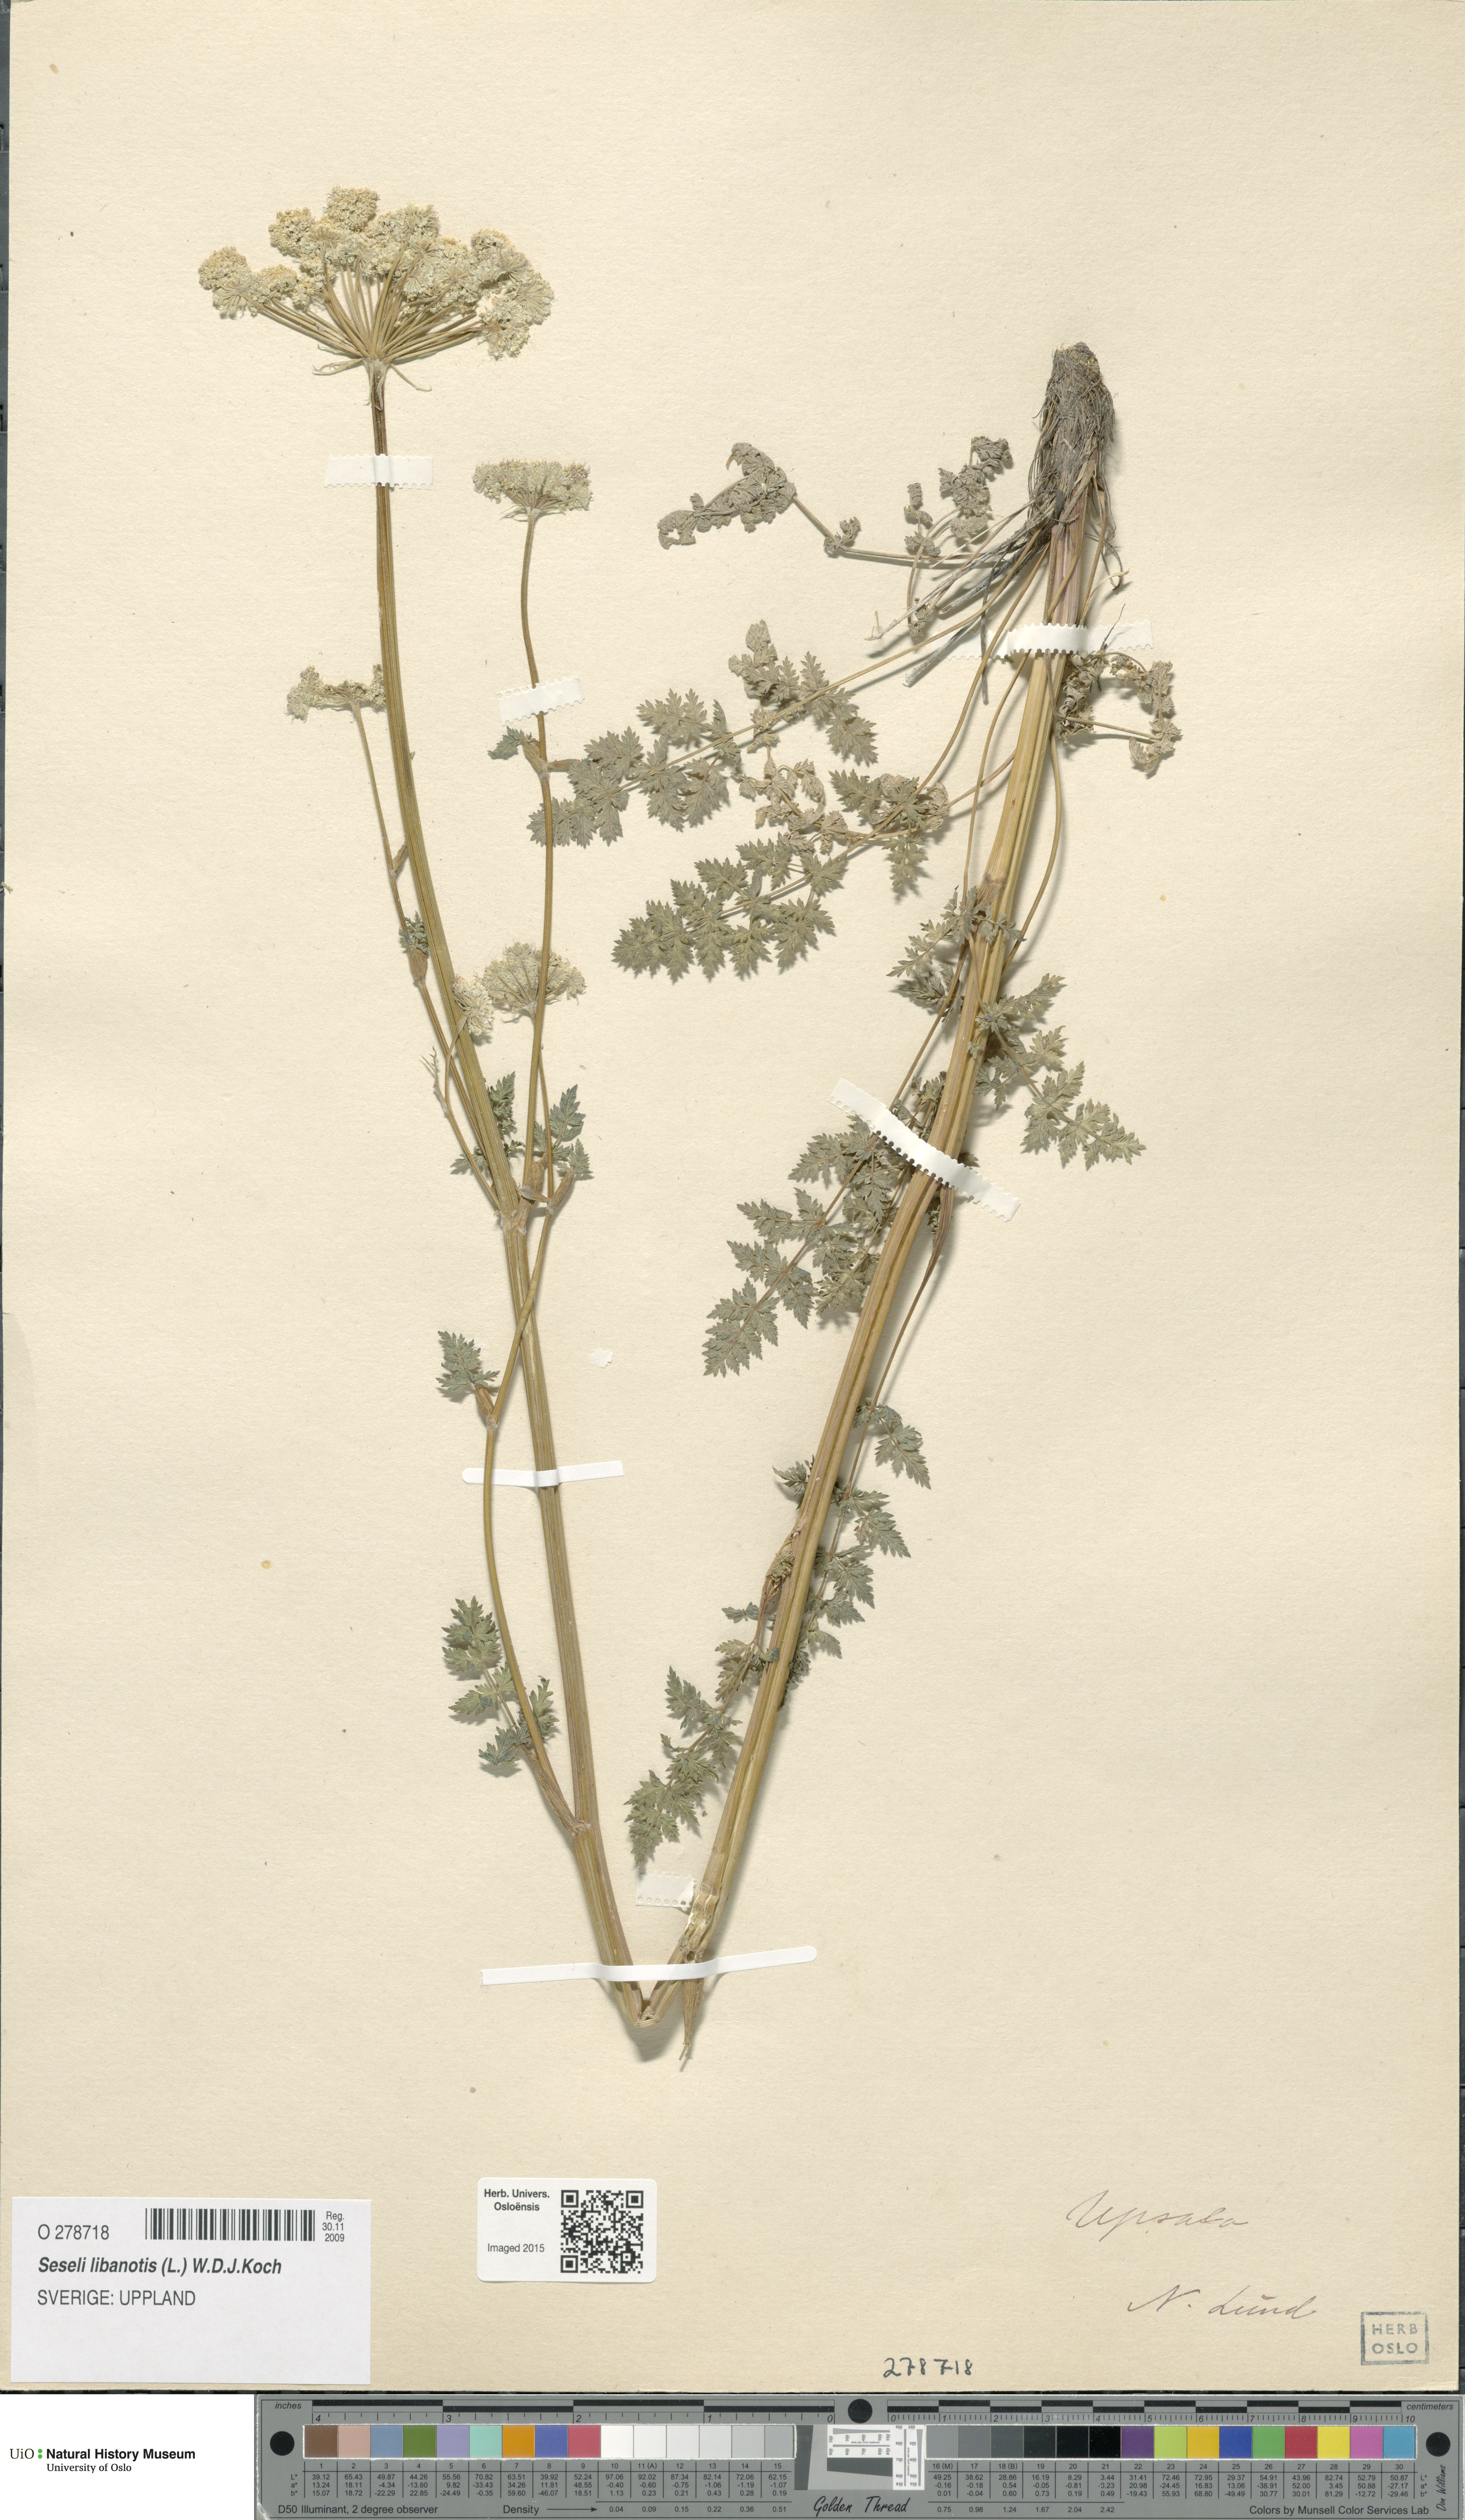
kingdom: Plantae
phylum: Tracheophyta
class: Magnoliopsida
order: Apiales
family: Apiaceae
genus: Seseli
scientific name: Seseli libanotis
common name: Mooncarrot
